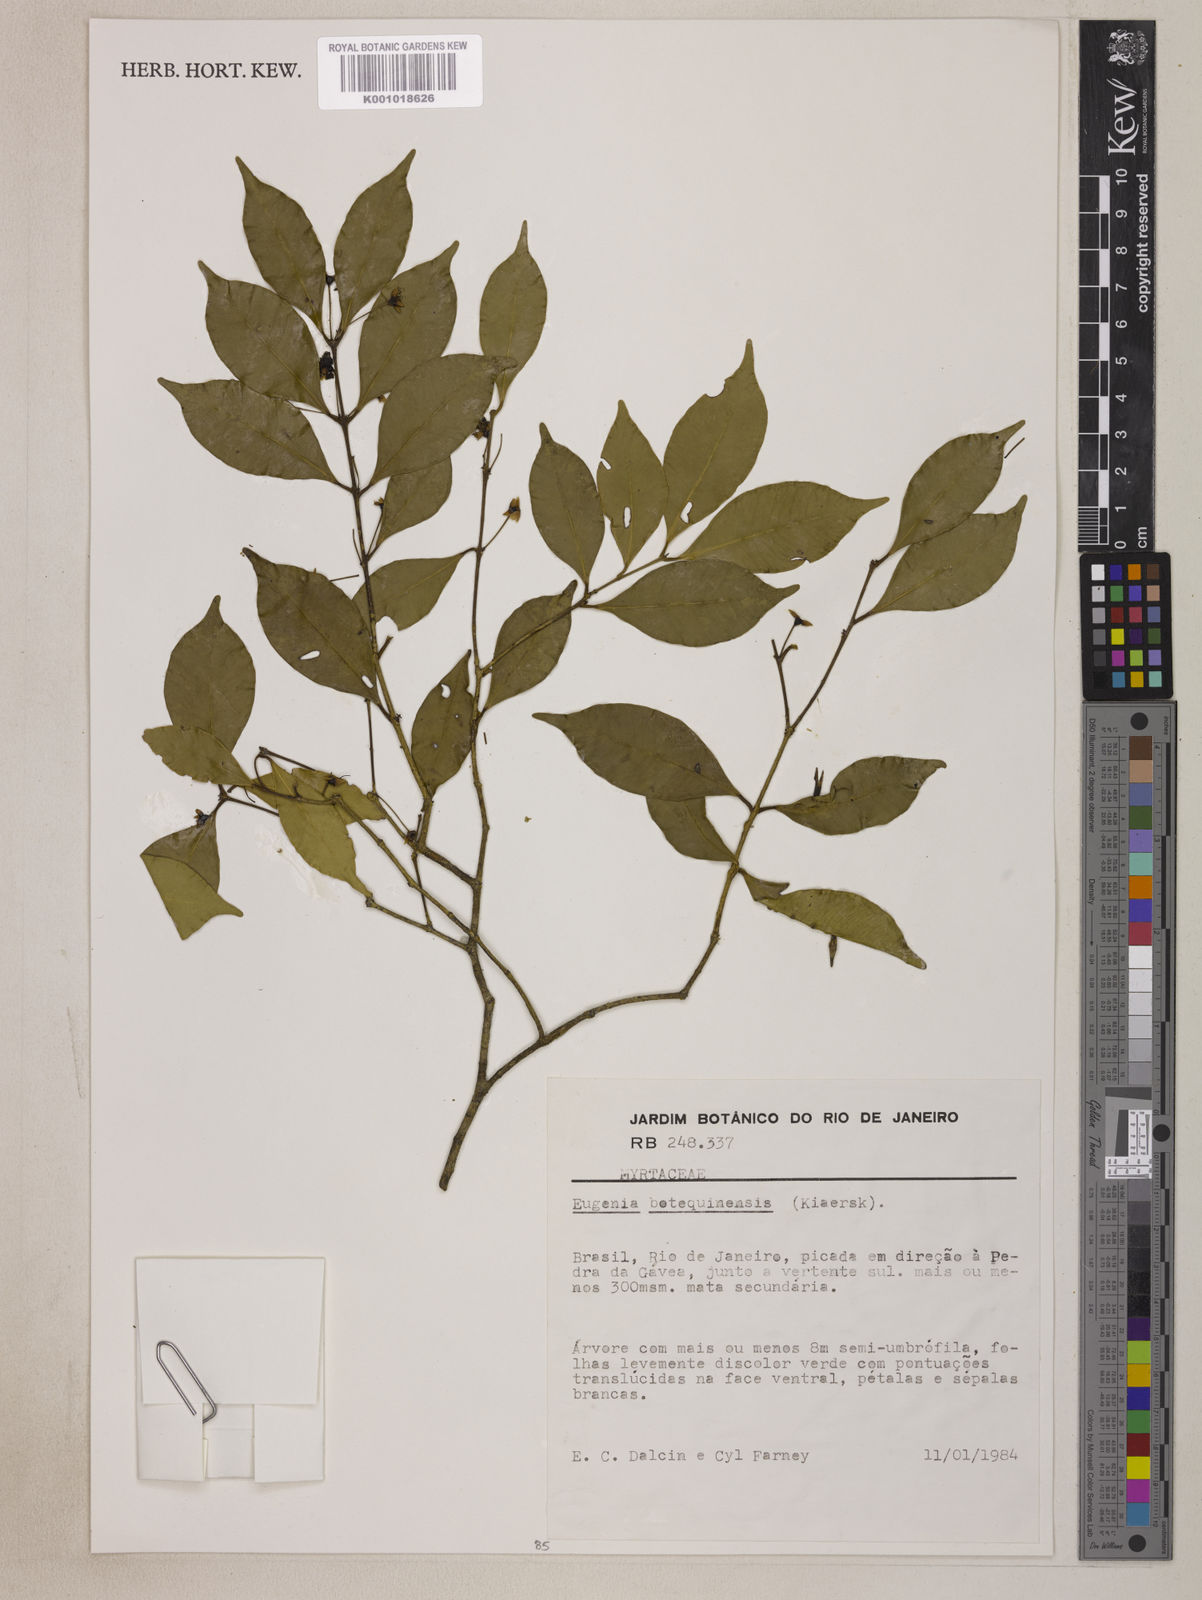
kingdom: Plantae
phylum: Tracheophyta
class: Magnoliopsida
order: Myrtales
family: Myrtaceae
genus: Eugenia
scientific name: Eugenia botequimensis
